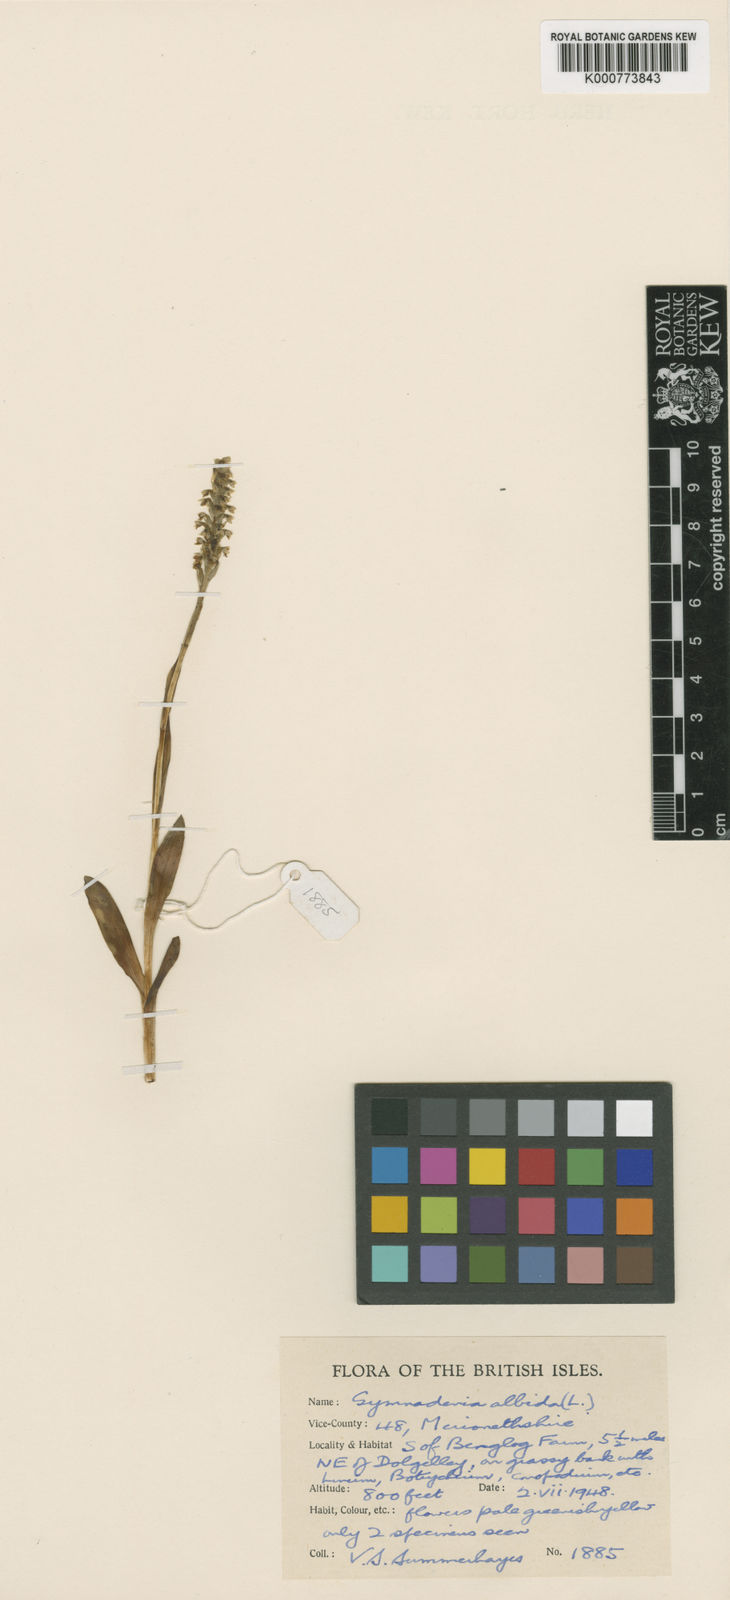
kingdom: Plantae
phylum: Tracheophyta
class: Liliopsida
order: Asparagales
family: Orchidaceae
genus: Pseudorchis
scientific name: Pseudorchis
